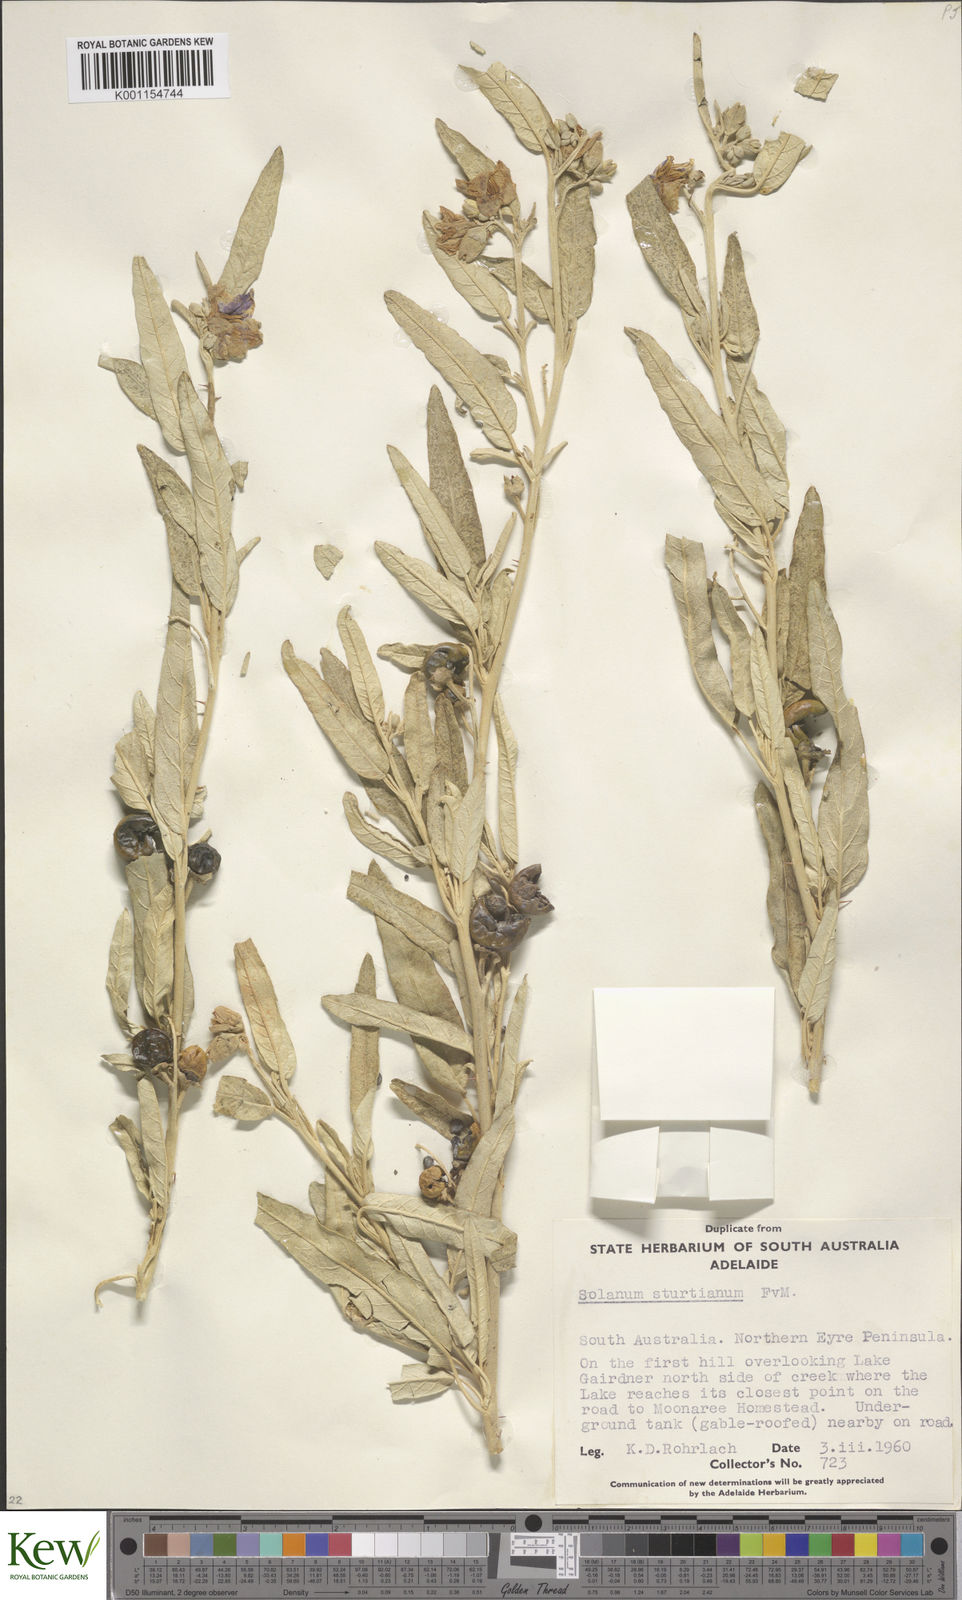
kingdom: Plantae
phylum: Tracheophyta
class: Magnoliopsida
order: Solanales
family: Solanaceae
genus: Solanum
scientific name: Solanum sturtianum
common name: Thargomindah nightshade
